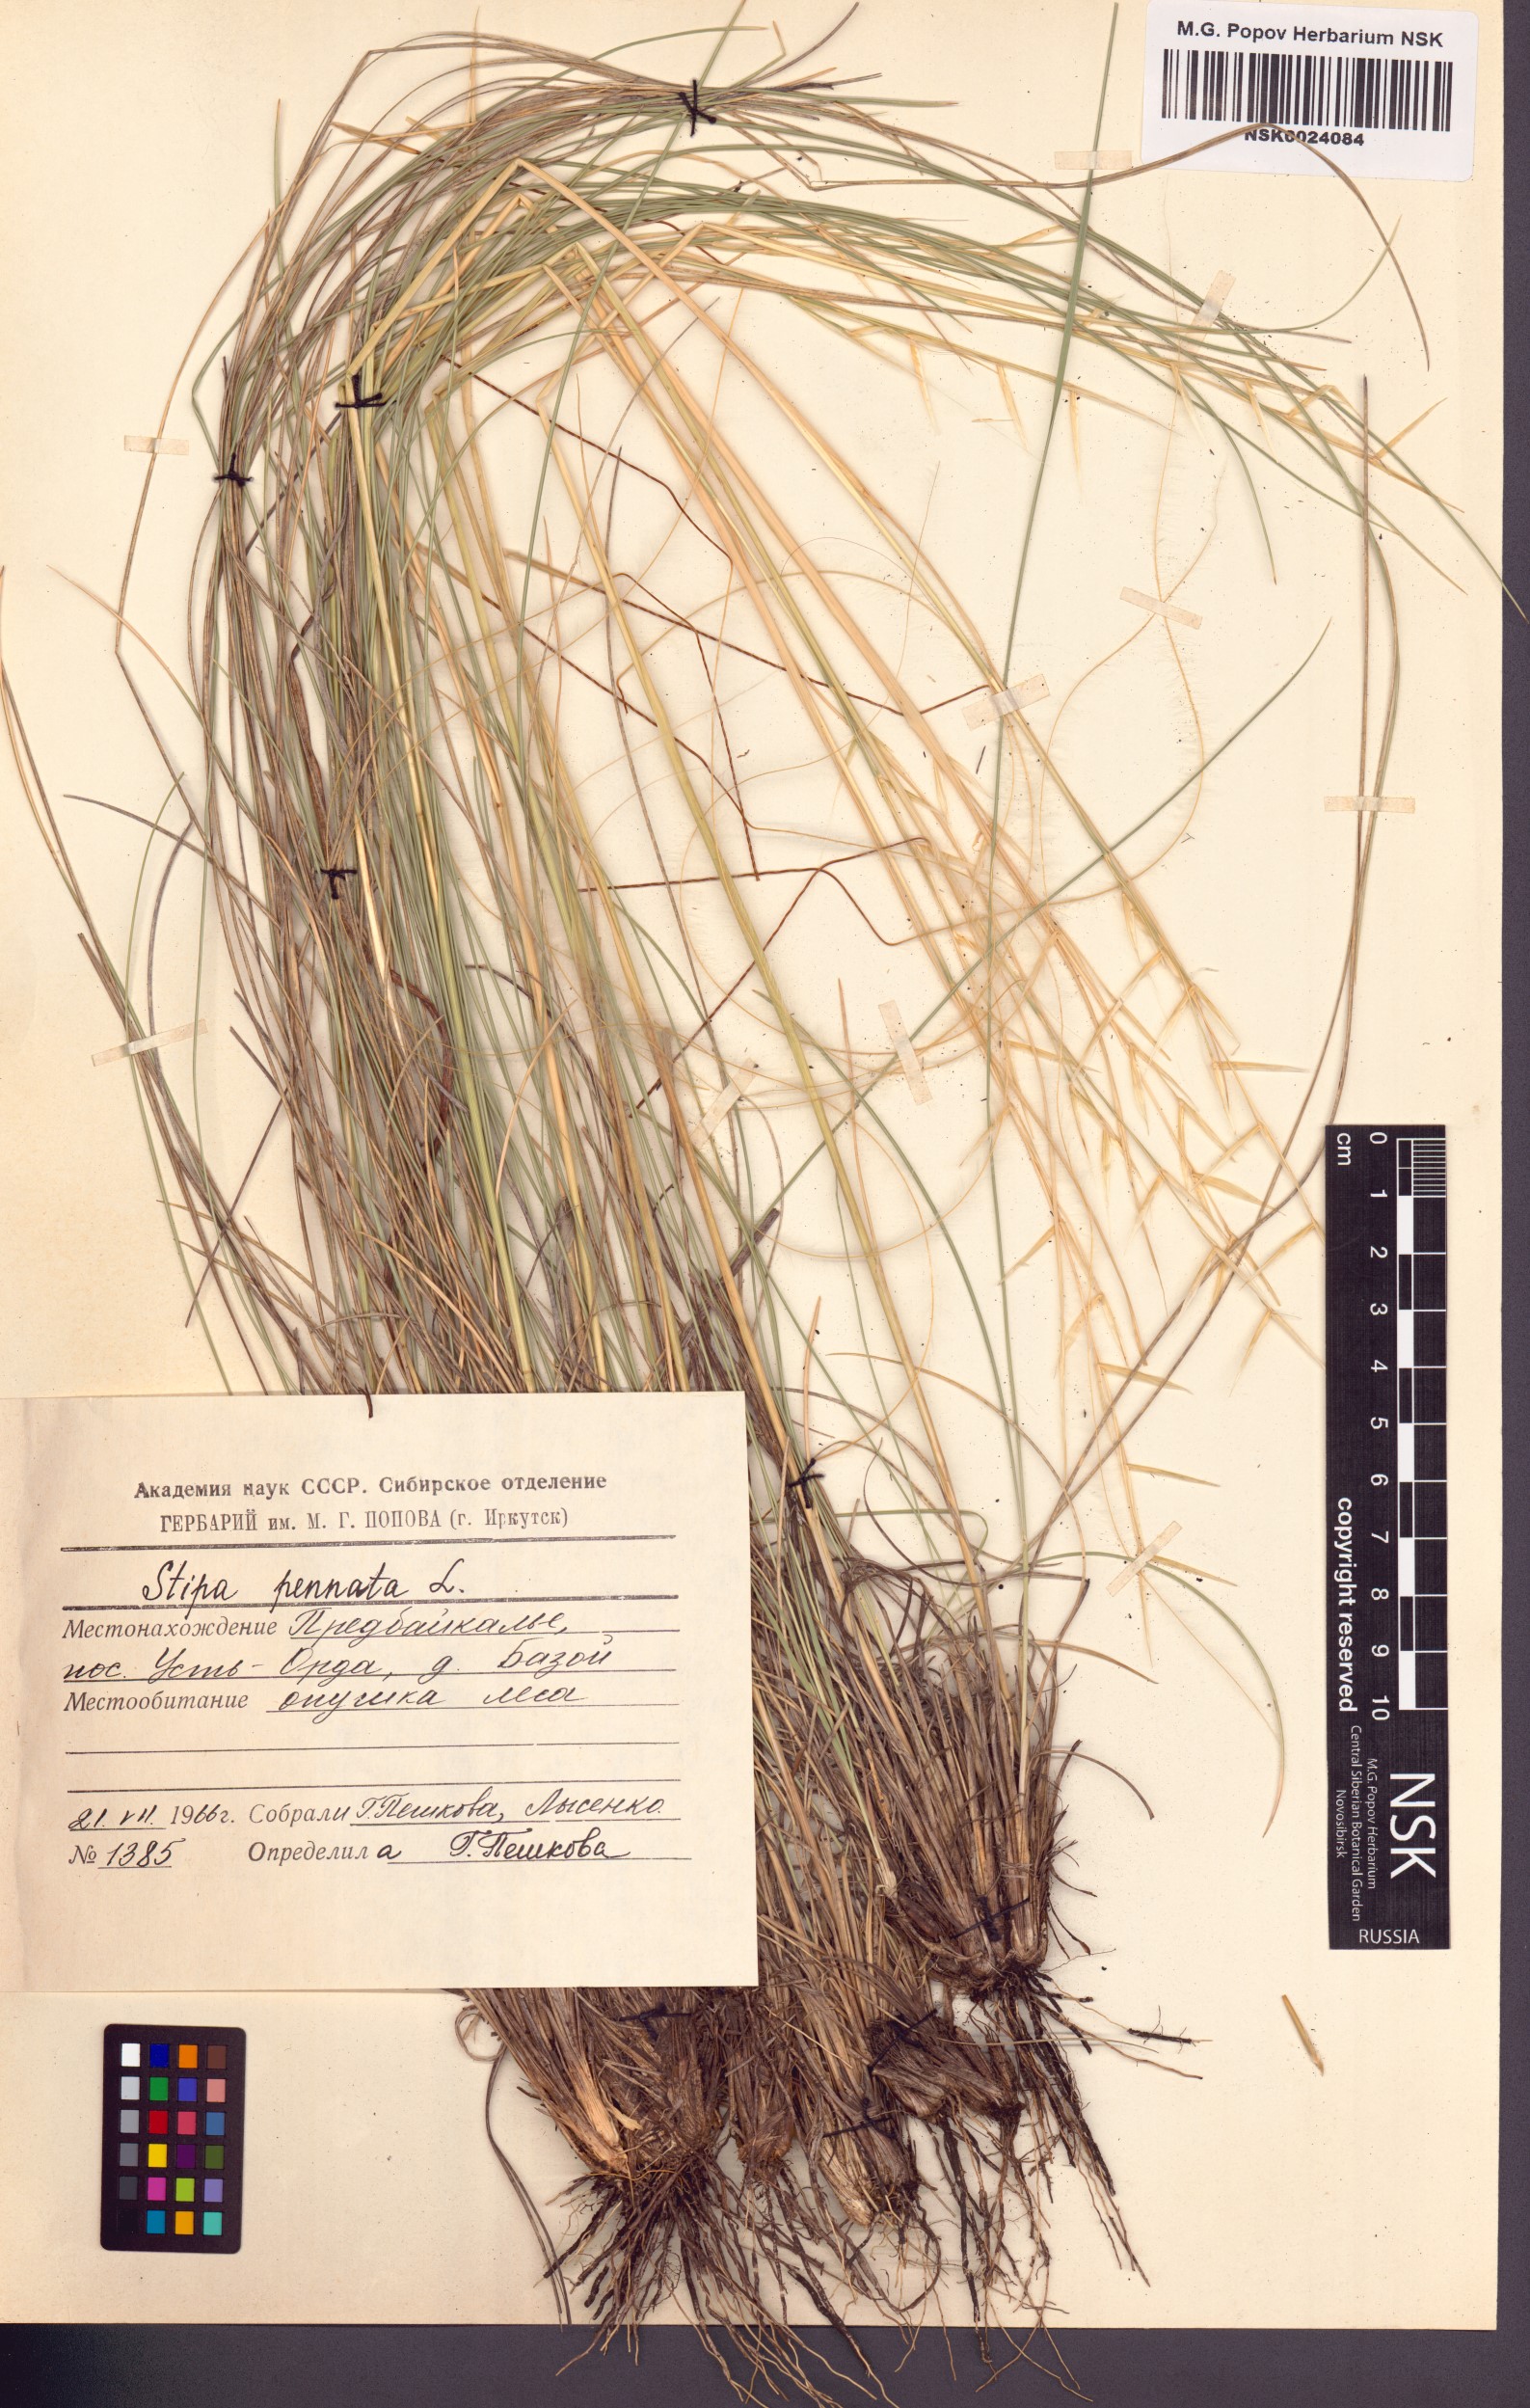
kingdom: Plantae
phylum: Tracheophyta
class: Liliopsida
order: Poales
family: Poaceae
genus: Stipa
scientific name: Stipa pennata
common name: European feather grass
